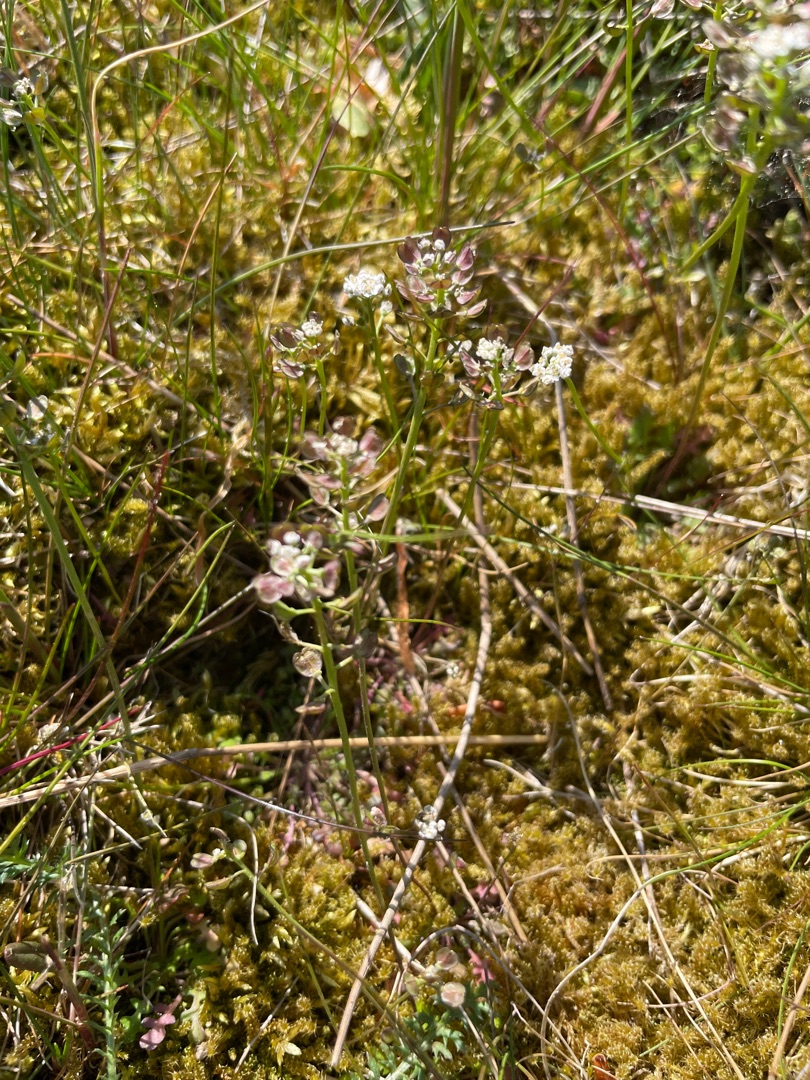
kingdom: Plantae
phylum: Tracheophyta
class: Magnoliopsida
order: Brassicales
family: Brassicaceae
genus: Teesdalia
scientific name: Teesdalia nudicaulis
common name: Flipkrave
